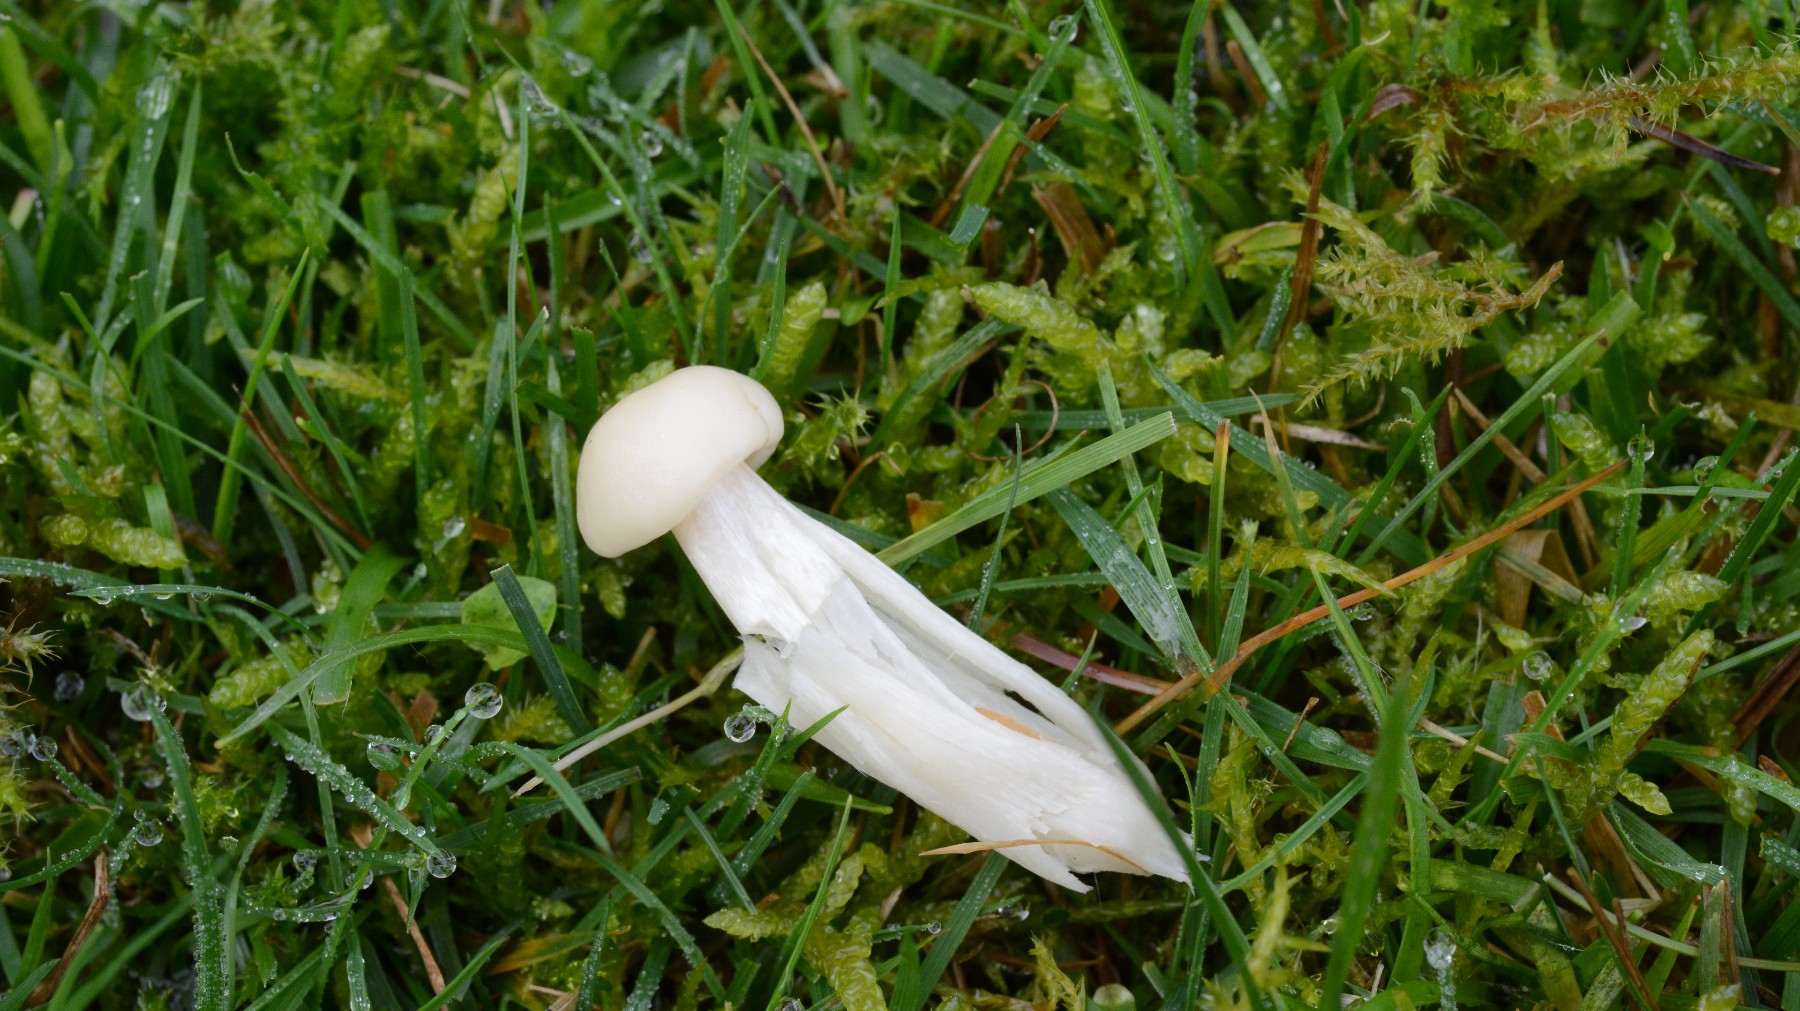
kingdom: Fungi
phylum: Basidiomycota
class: Agaricomycetes
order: Agaricales
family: Hygrophoraceae
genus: Cuphophyllus
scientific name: Cuphophyllus russocoriaceus
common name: ruslæder-vokshat
